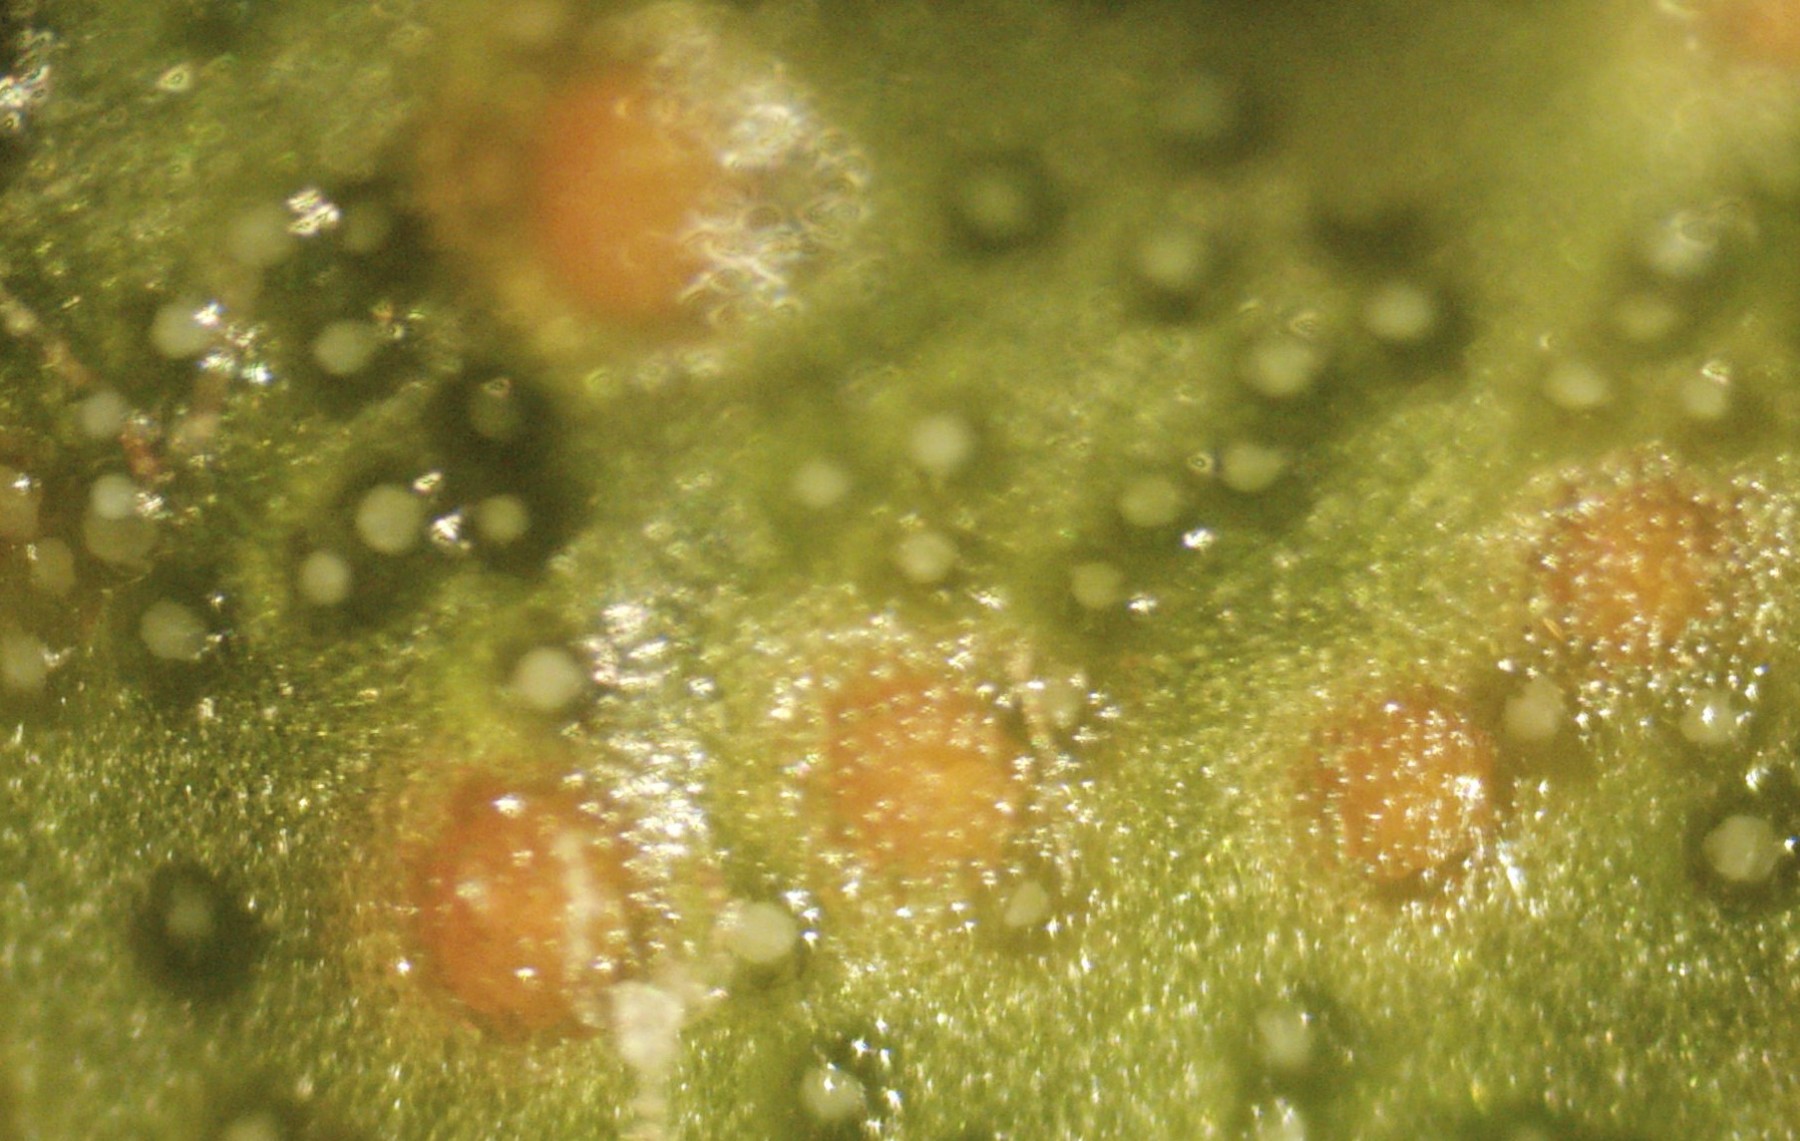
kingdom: Fungi
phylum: Chytridiomycota
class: Chytridiomycetes
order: Chytridiales
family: Synchytriaceae
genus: Synchytrium
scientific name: Synchytrium taraxaci
